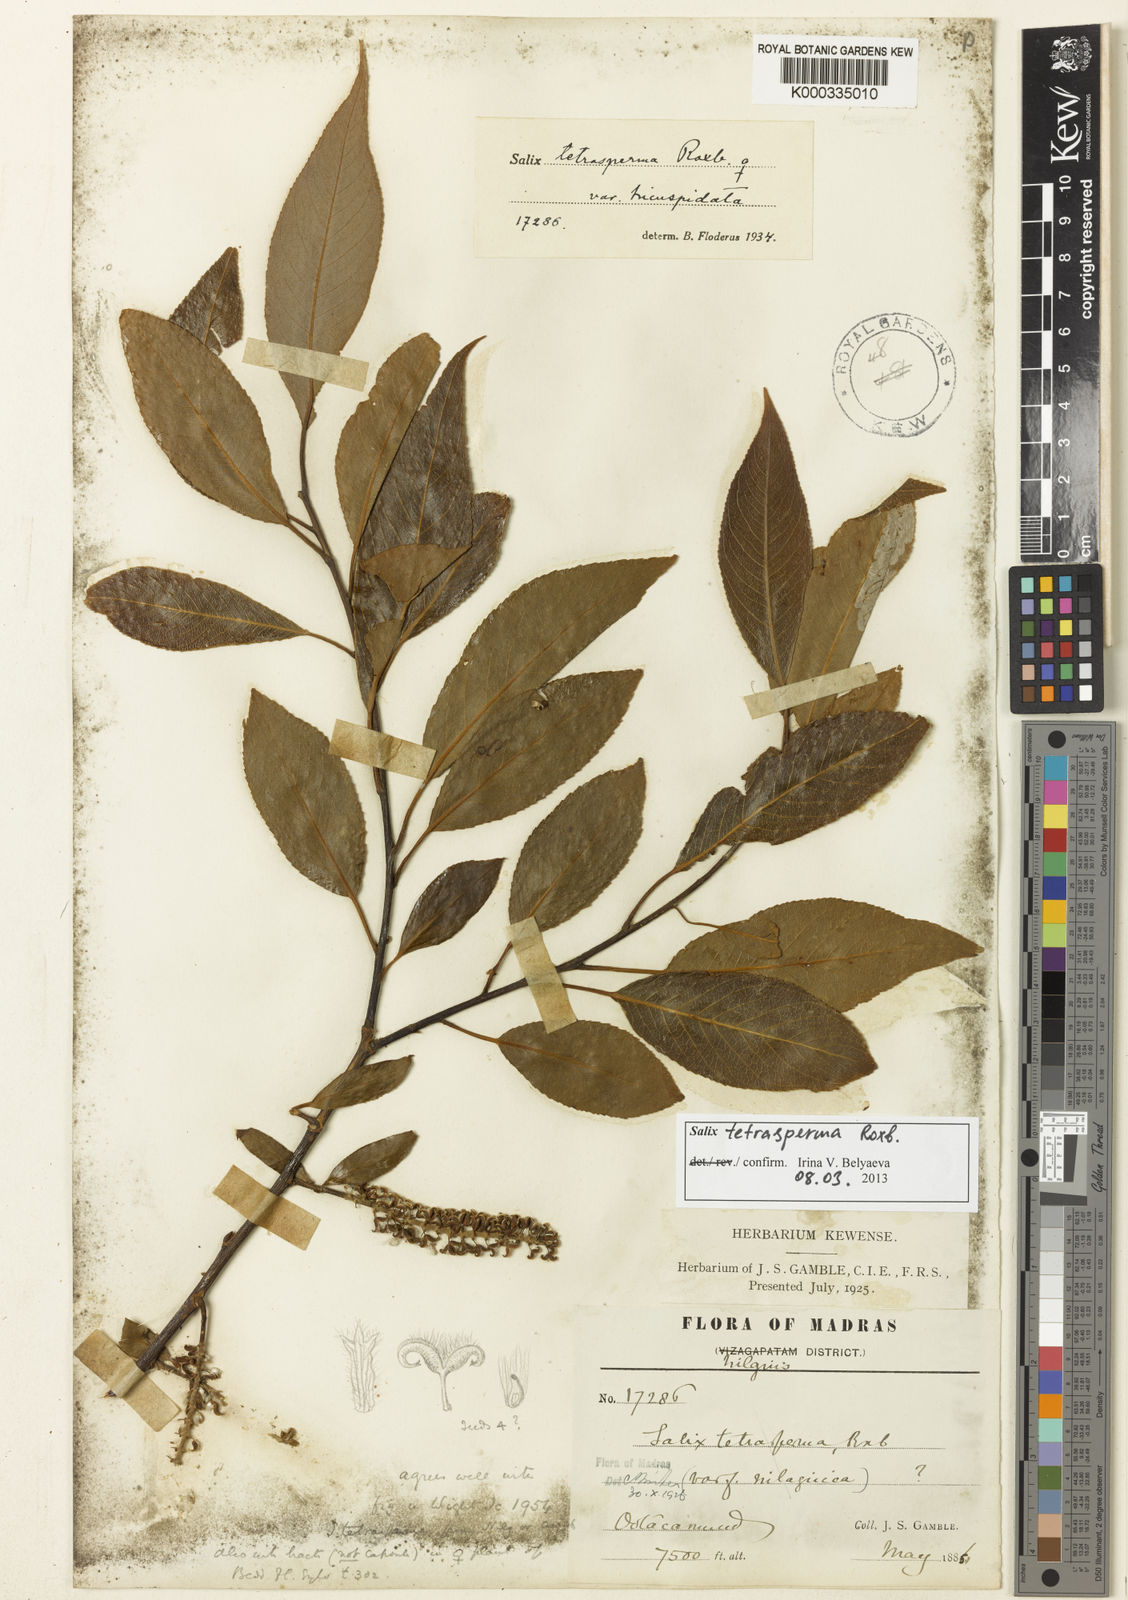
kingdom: Plantae
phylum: Tracheophyta
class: Magnoliopsida
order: Malpighiales
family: Salicaceae
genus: Salix
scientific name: Salix tetrasperma
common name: Indian willow
